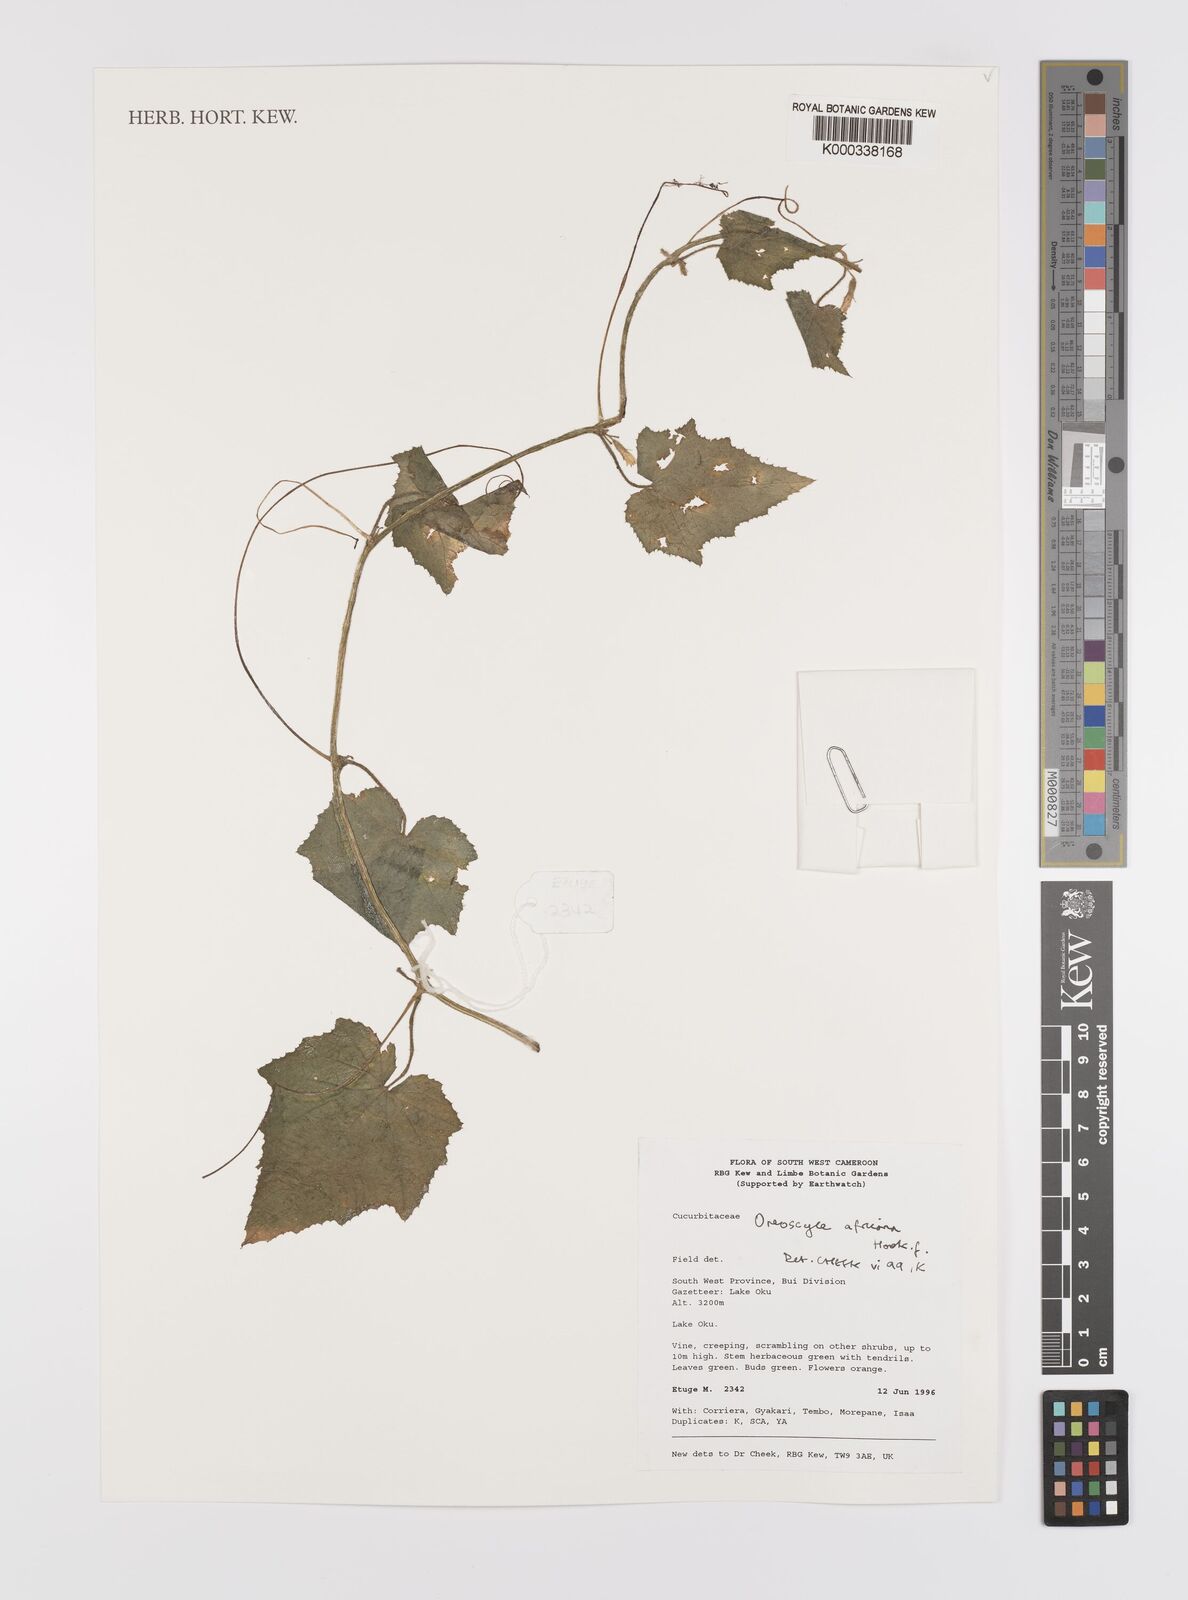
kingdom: Plantae
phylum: Tracheophyta
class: Magnoliopsida
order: Cucurbitales
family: Cucurbitaceae
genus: Cucumis
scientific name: Cucumis oreosyce
